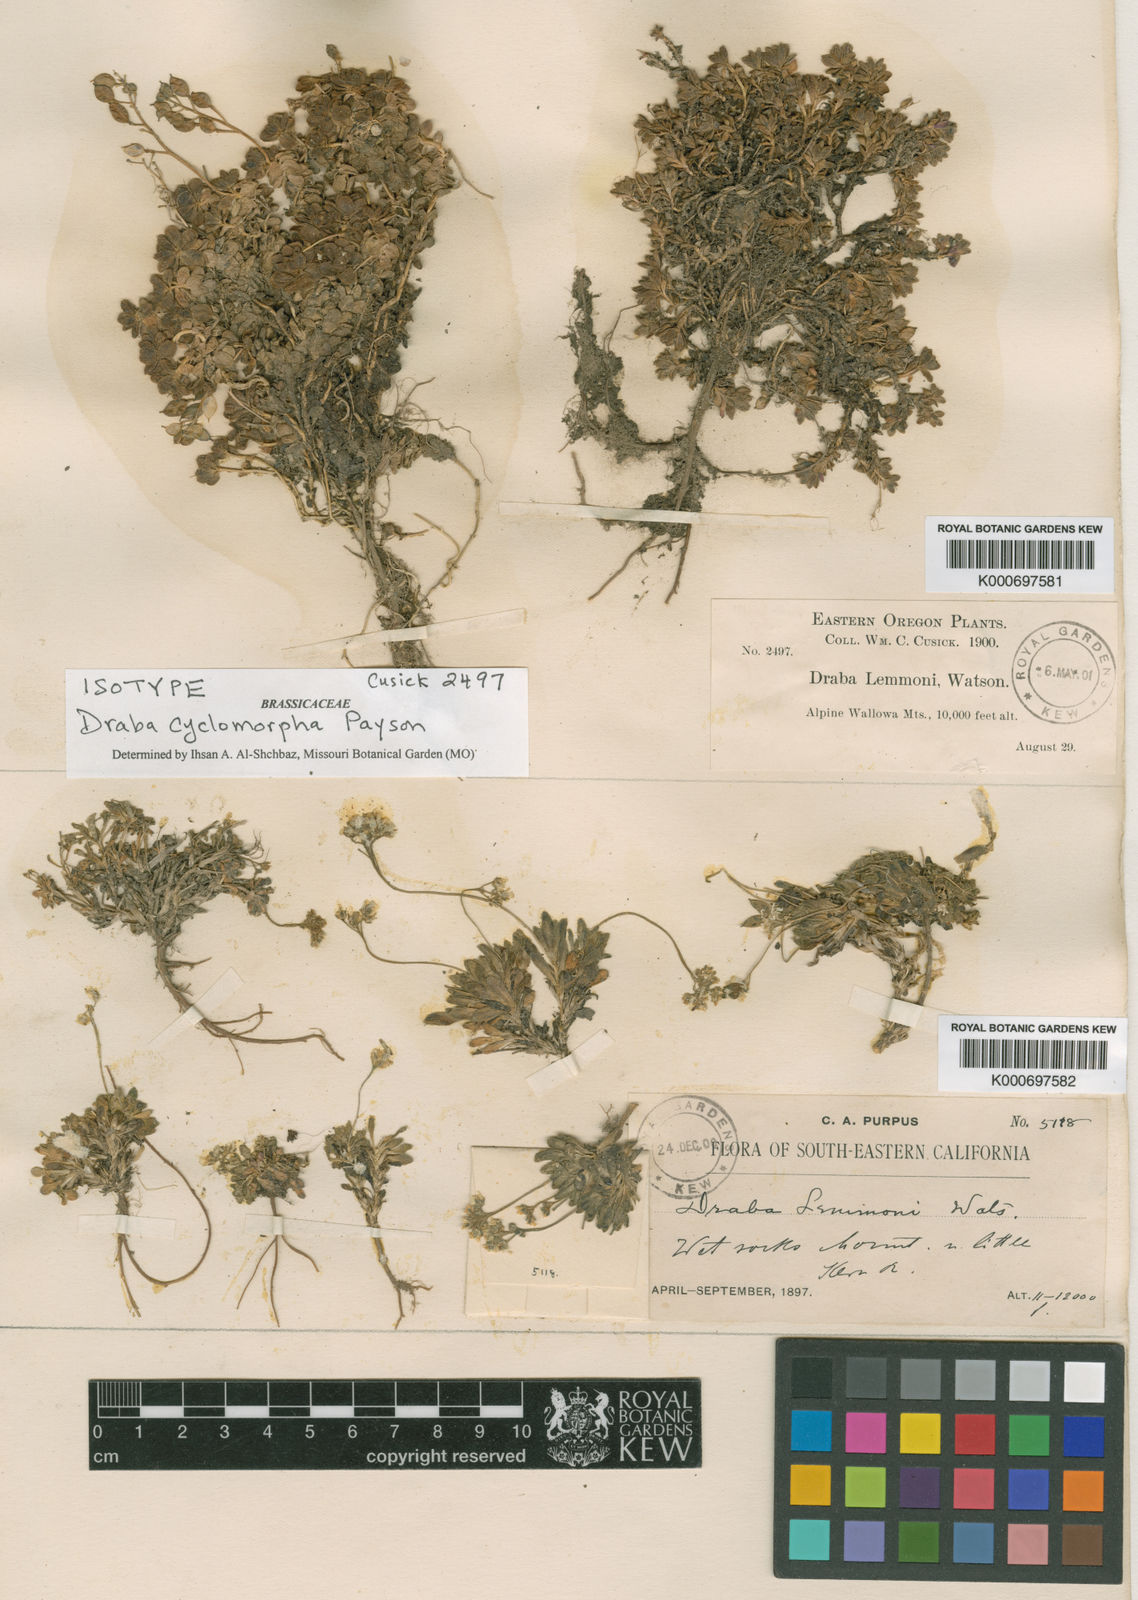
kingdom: Plantae
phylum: Tracheophyta
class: Magnoliopsida
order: Brassicales
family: Brassicaceae
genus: Draba
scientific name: Draba cyclomorpha
